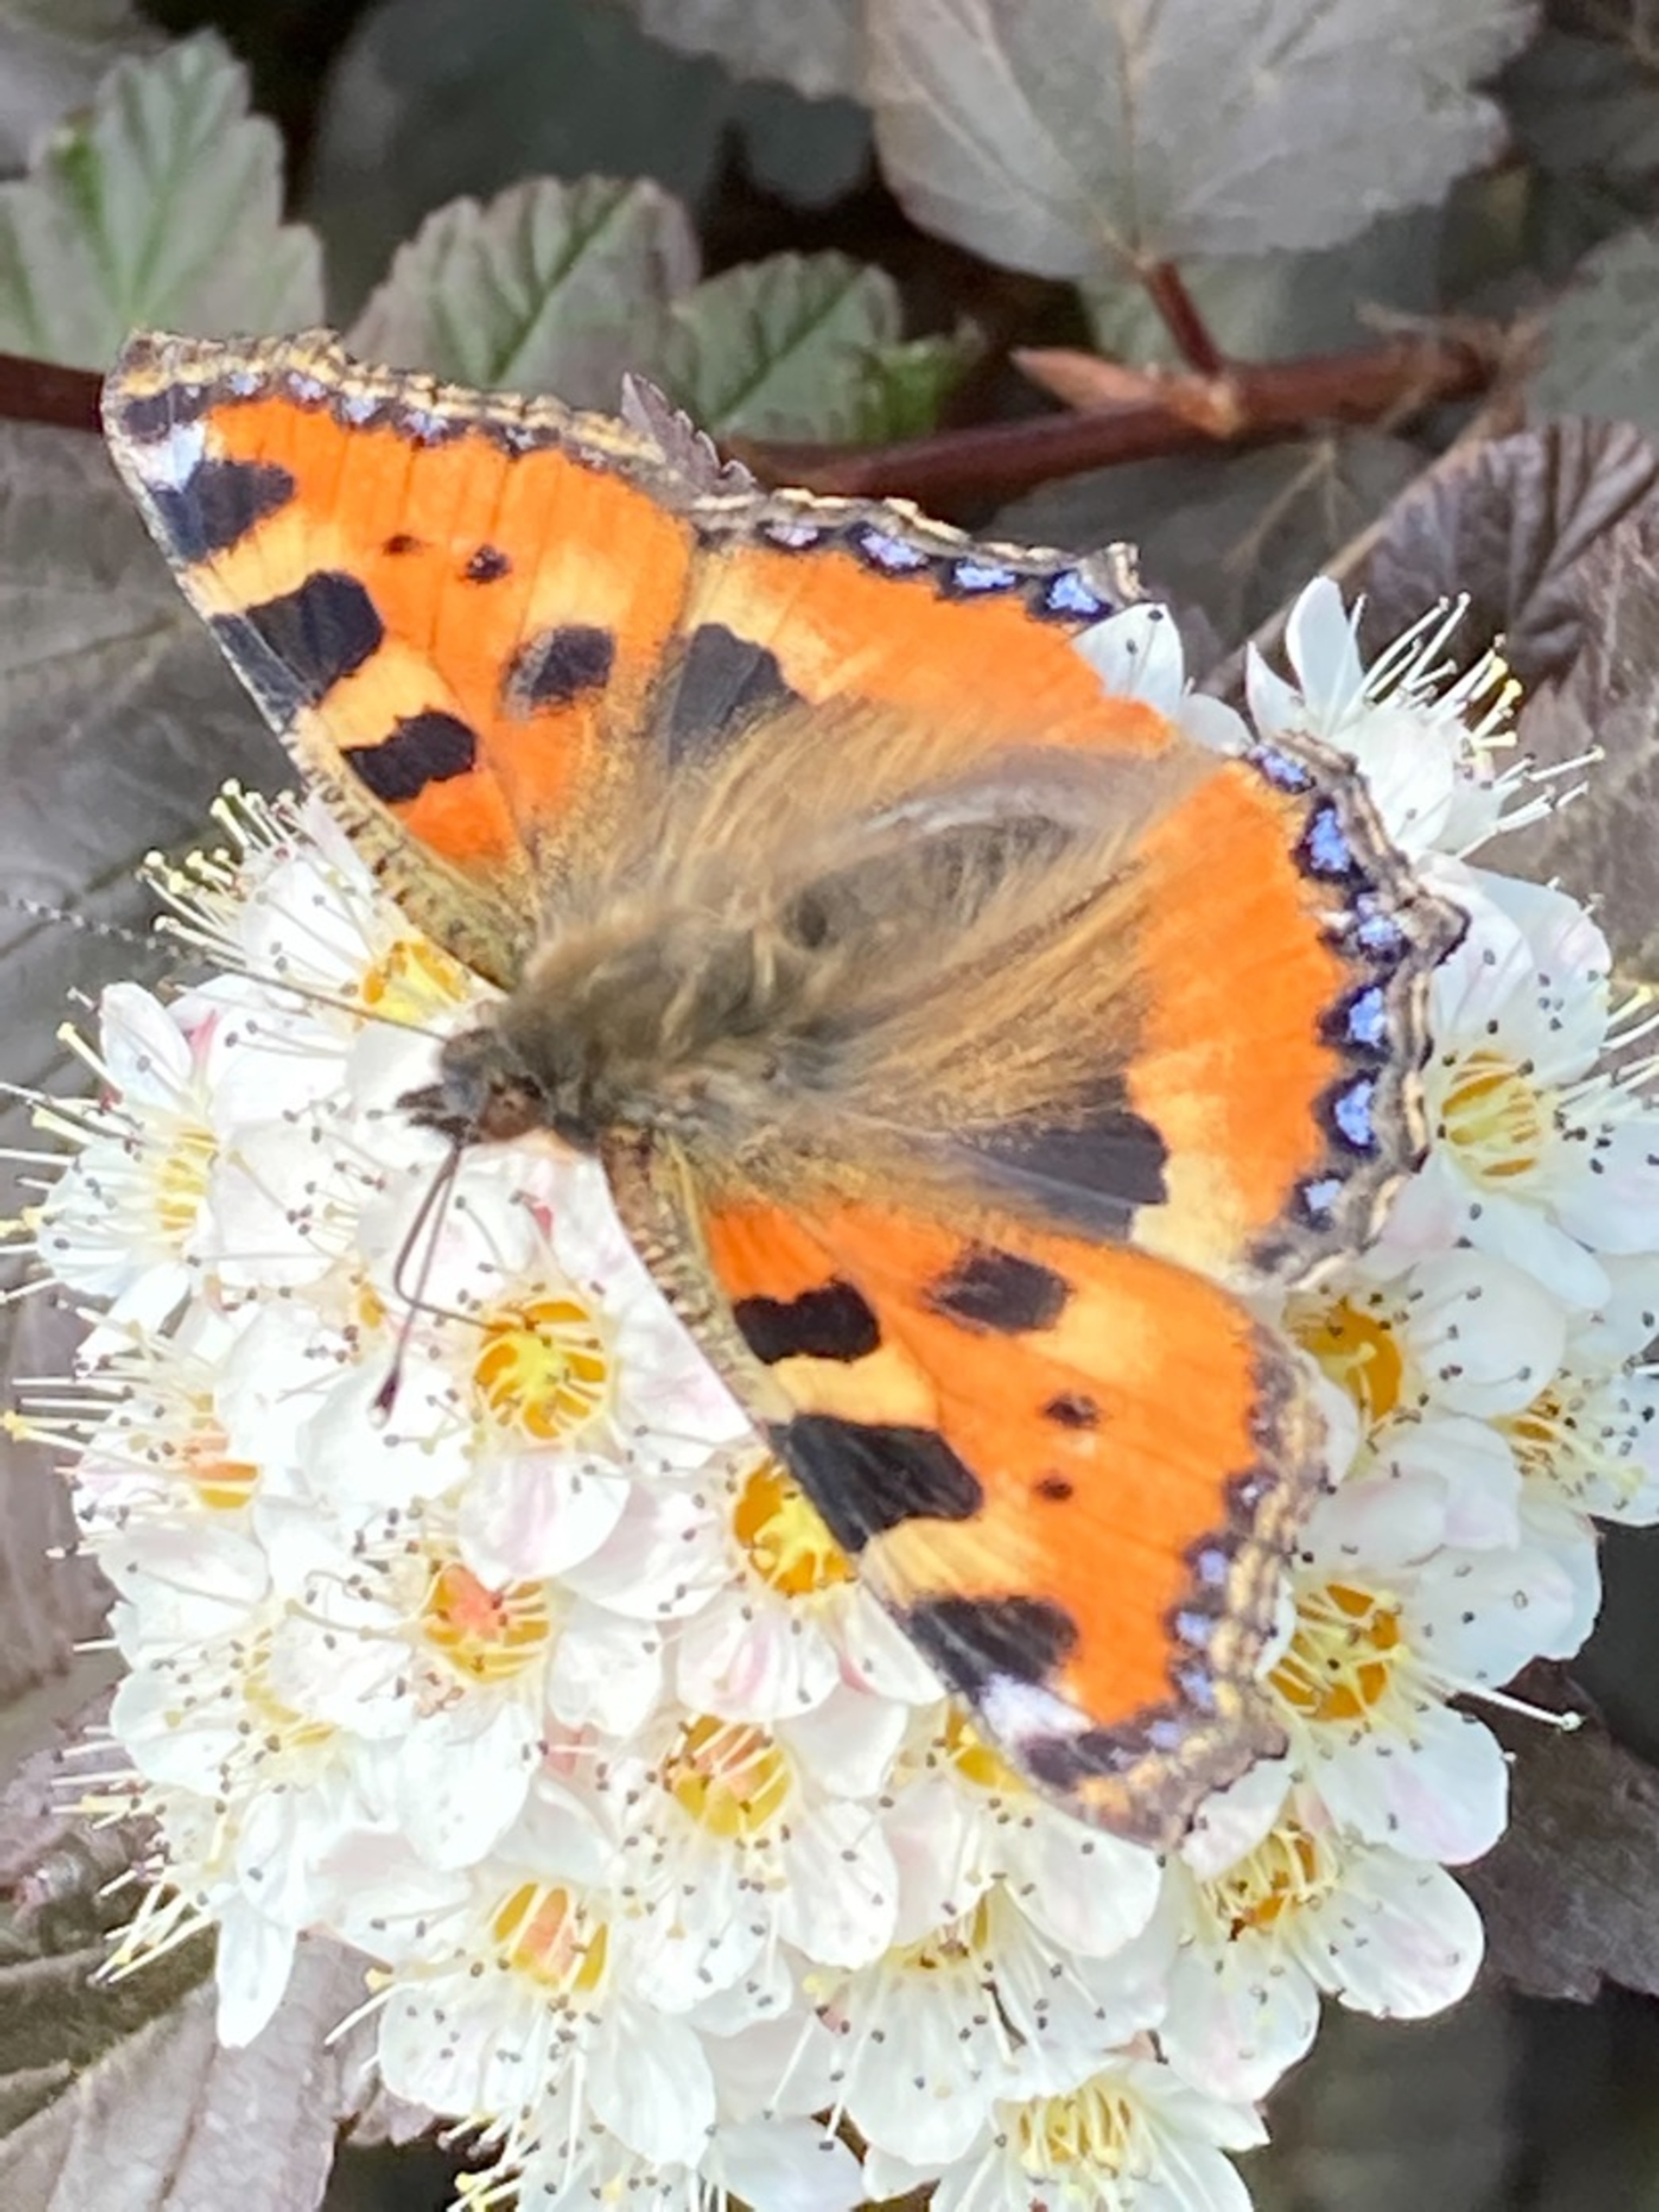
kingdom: Animalia
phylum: Arthropoda
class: Insecta
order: Lepidoptera
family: Nymphalidae
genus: Aglais
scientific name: Aglais urticae
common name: Nældens takvinge
